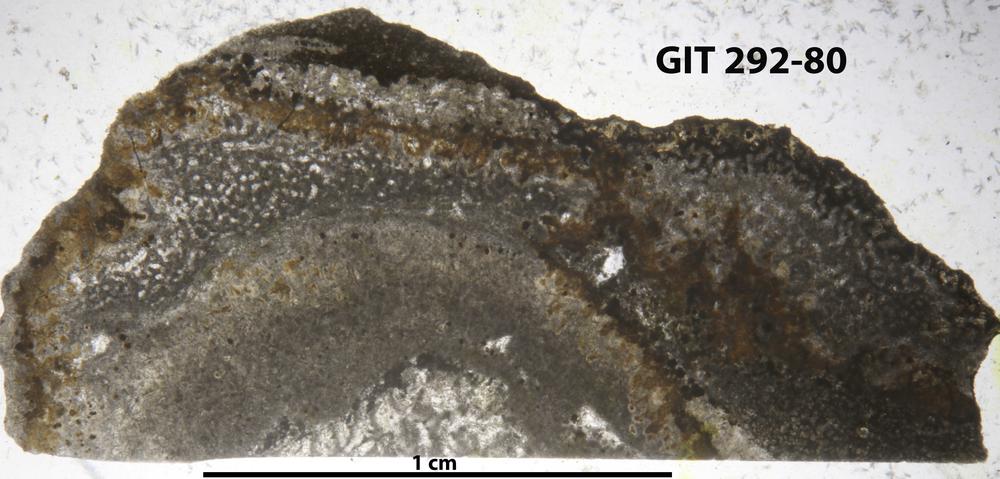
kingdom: Animalia
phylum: Porifera
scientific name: Porifera
